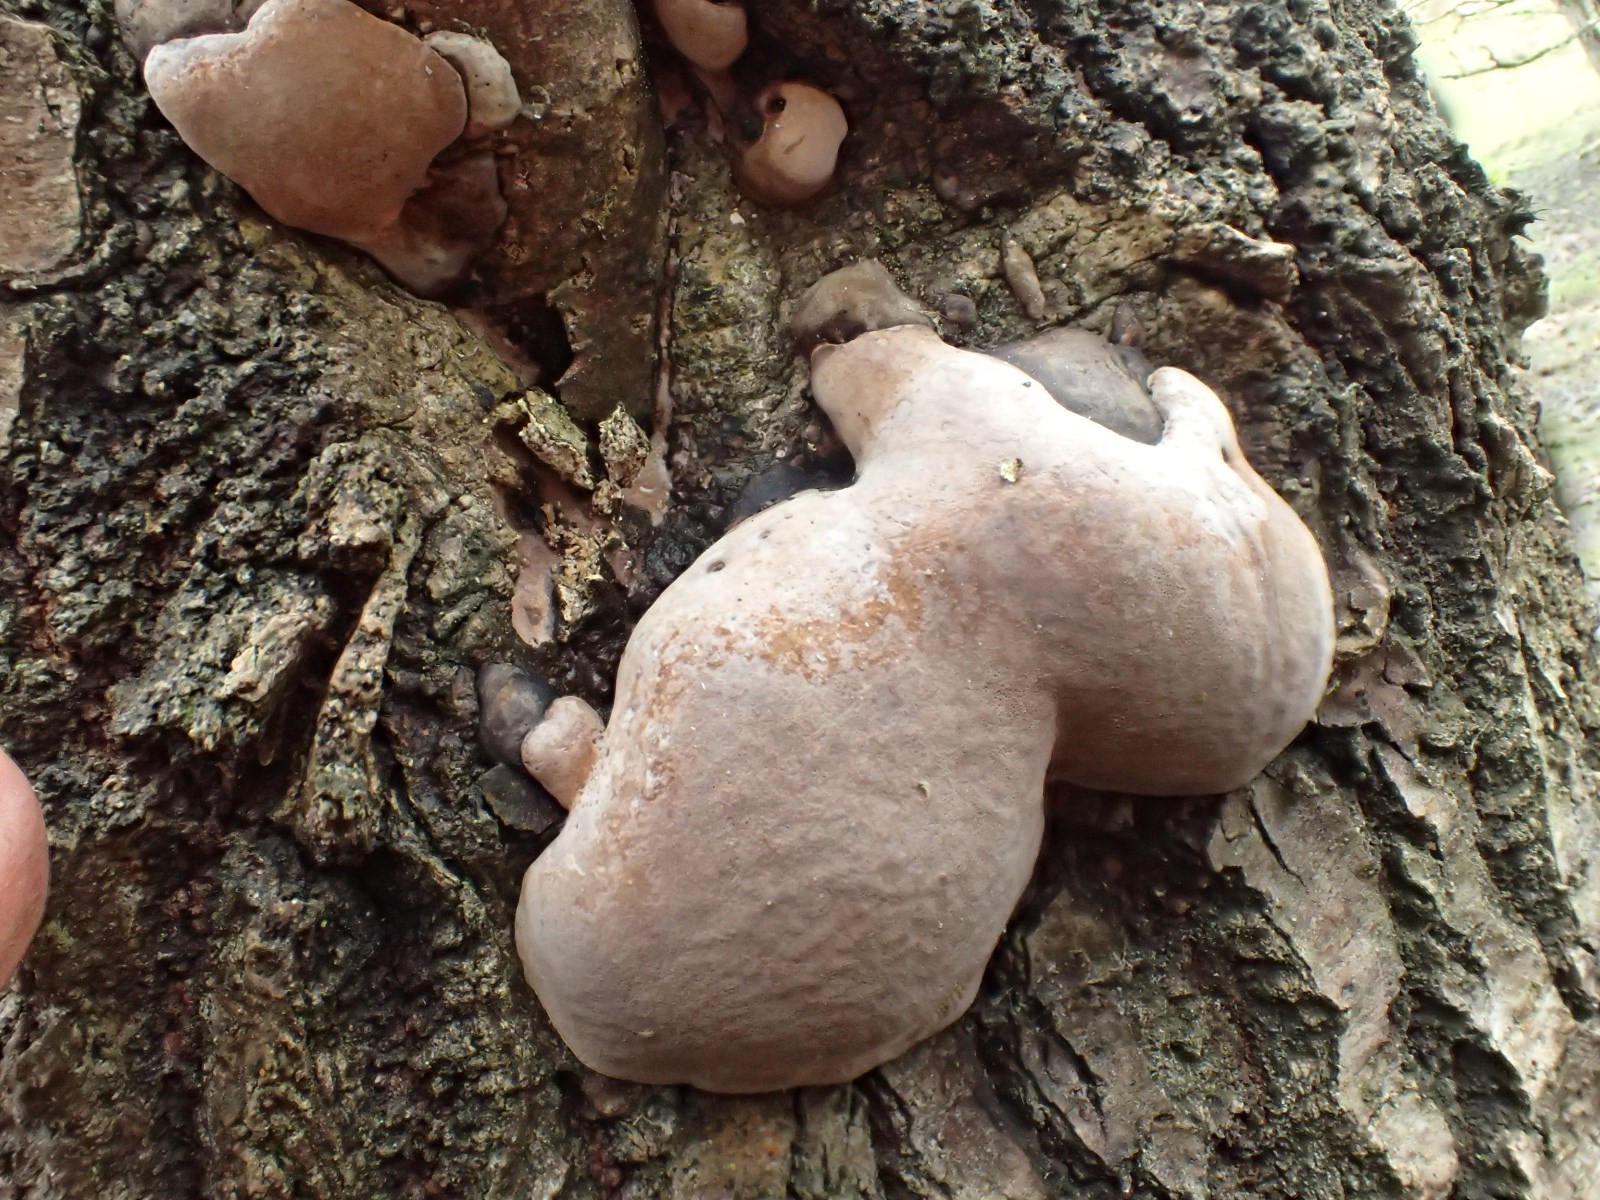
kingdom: Fungi
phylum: Basidiomycota
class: Agaricomycetes
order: Hymenochaetales
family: Hymenochaetaceae
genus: Phellinus
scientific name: Phellinus populicola
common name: poppel-ildporesvamp
